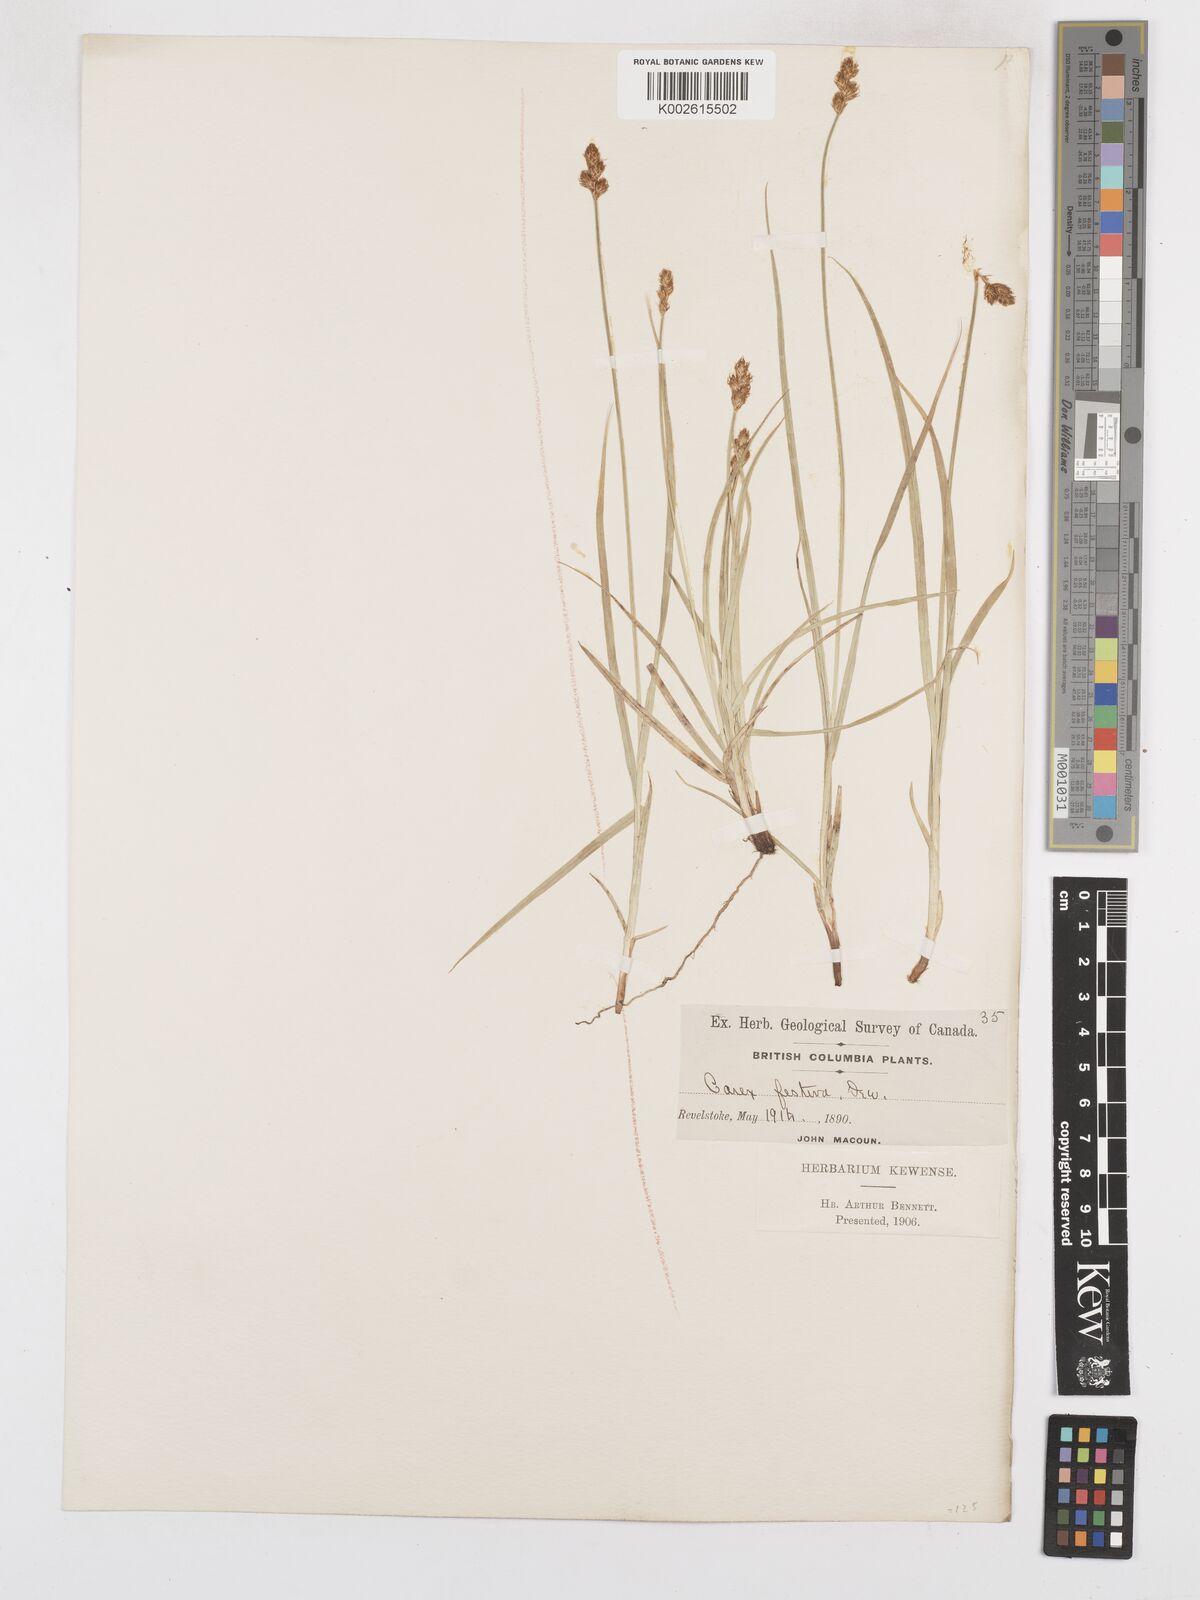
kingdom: Plantae
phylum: Tracheophyta
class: Liliopsida
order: Poales
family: Cyperaceae
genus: Carex
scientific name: Carex macloviana
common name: Falkland island sedge
